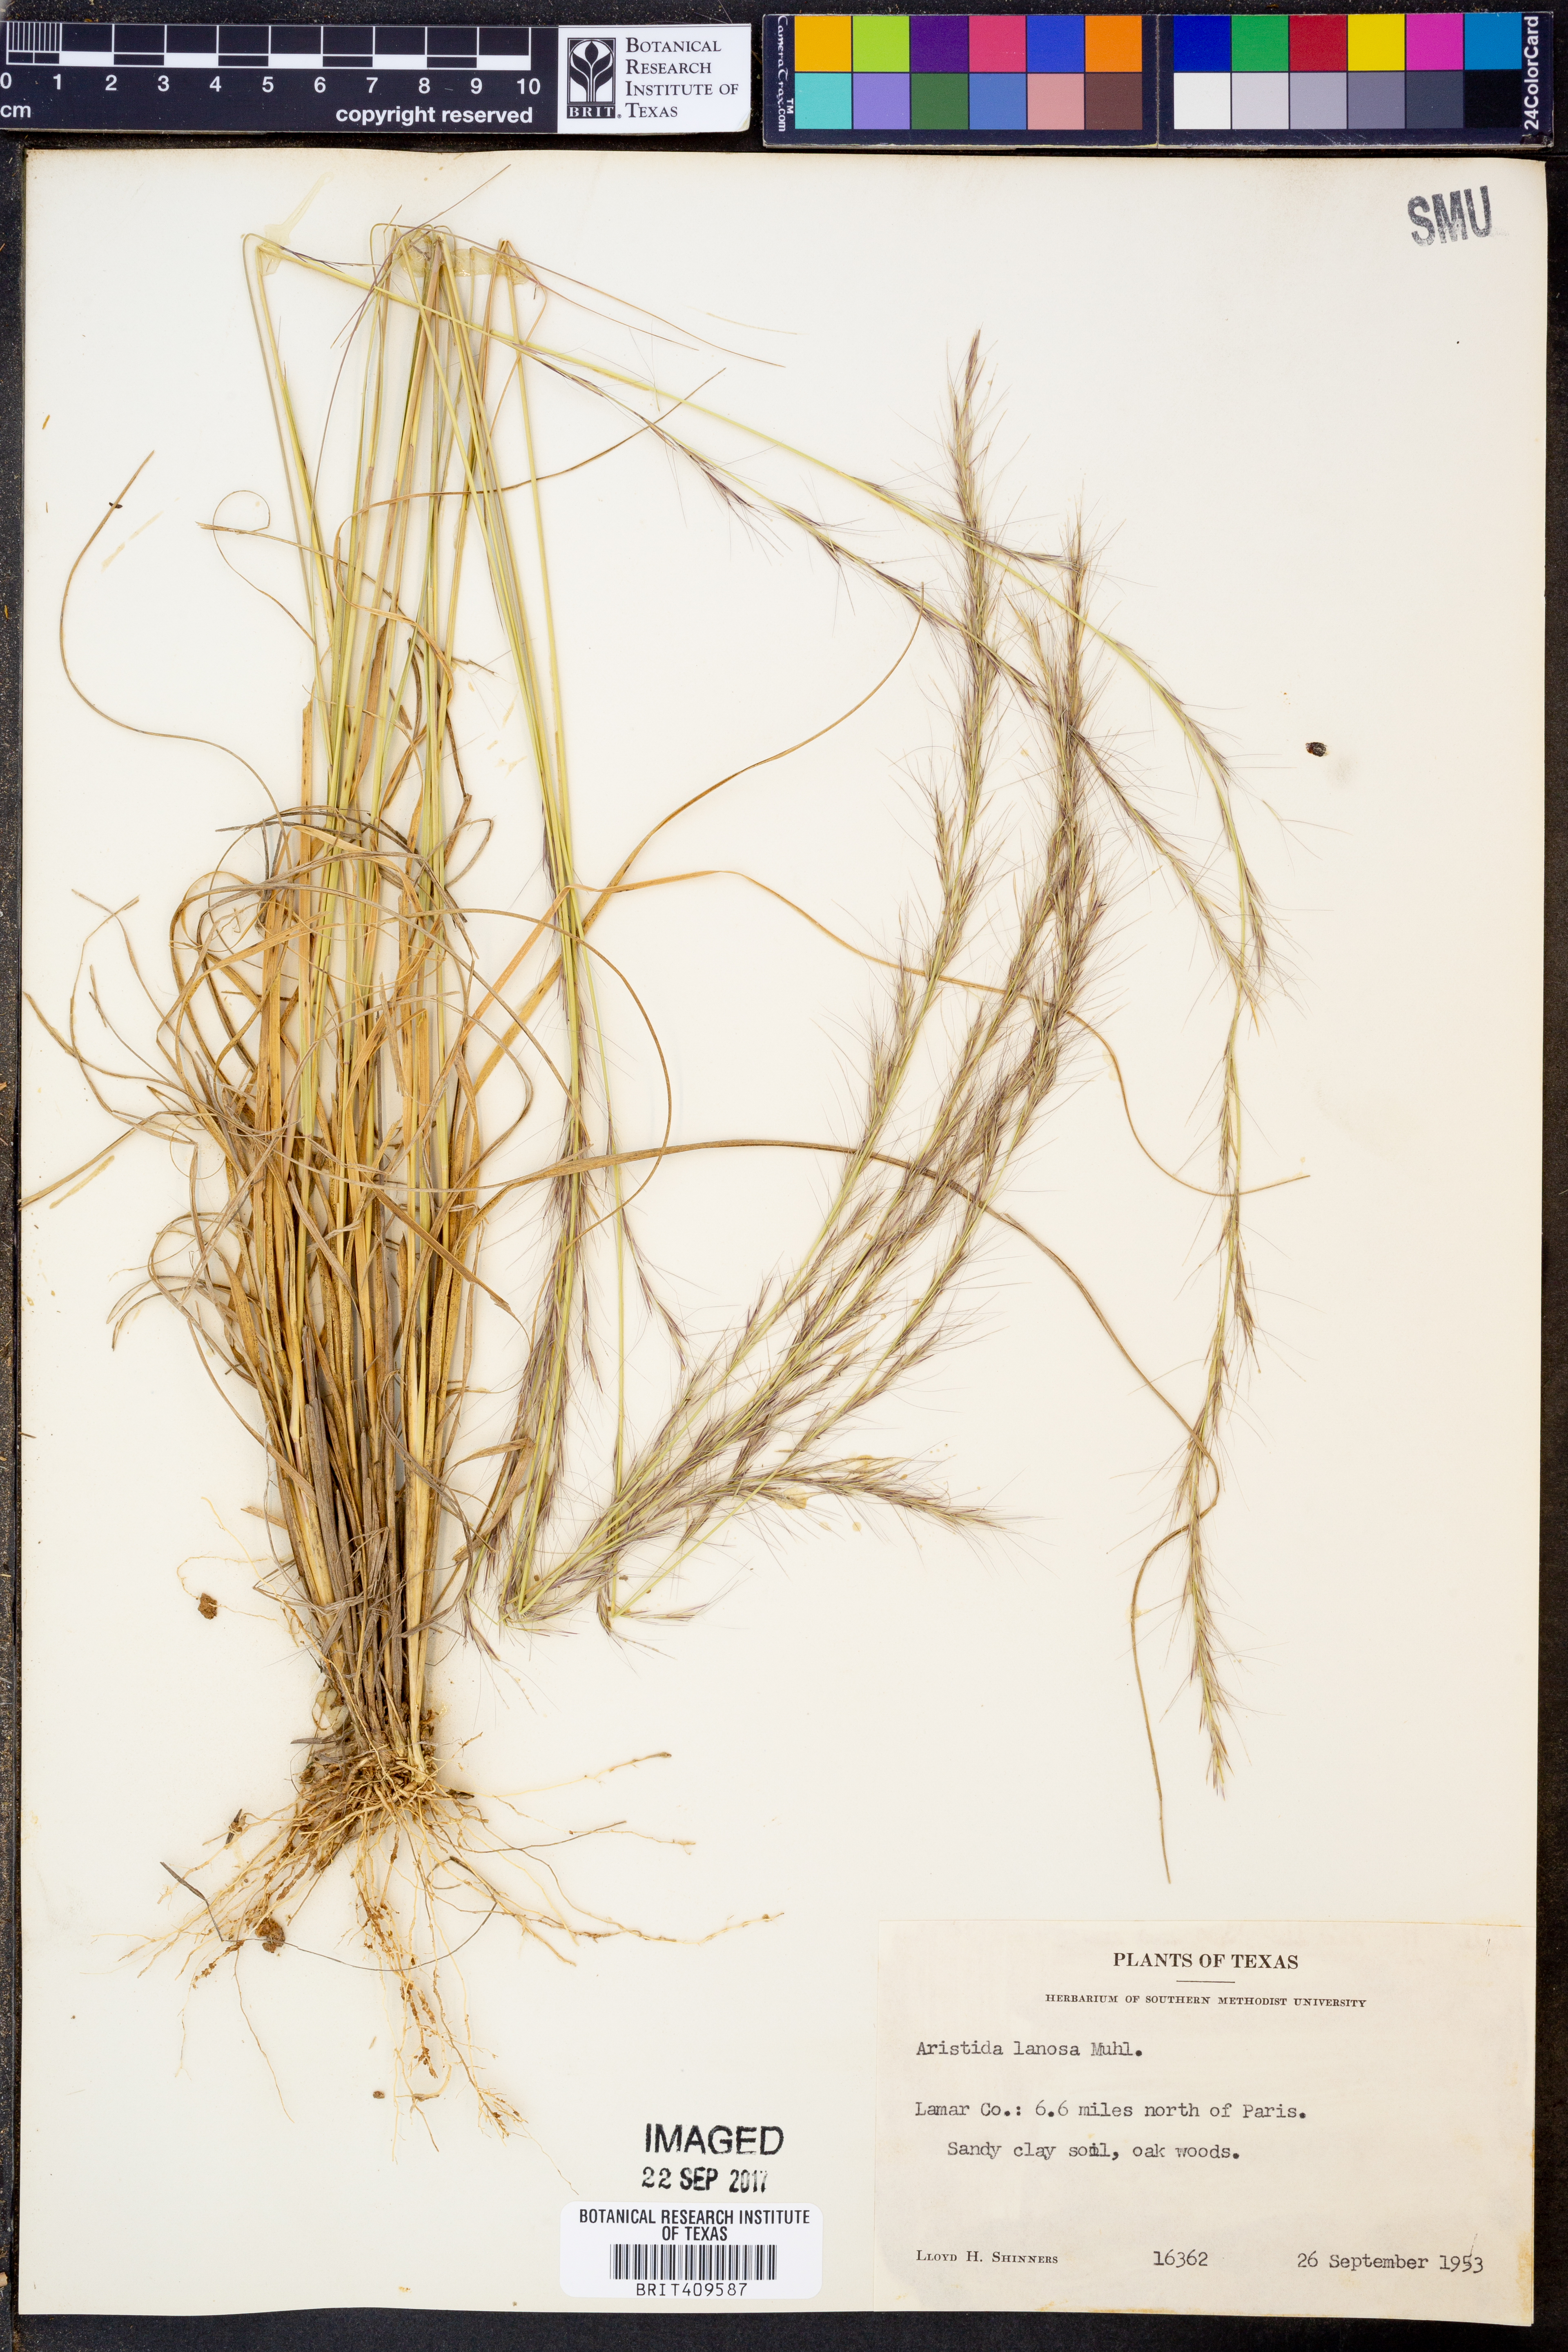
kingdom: Plantae
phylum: Tracheophyta
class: Liliopsida
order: Poales
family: Poaceae
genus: Aristida
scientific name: Aristida lanosa
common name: Woolly three-awn
